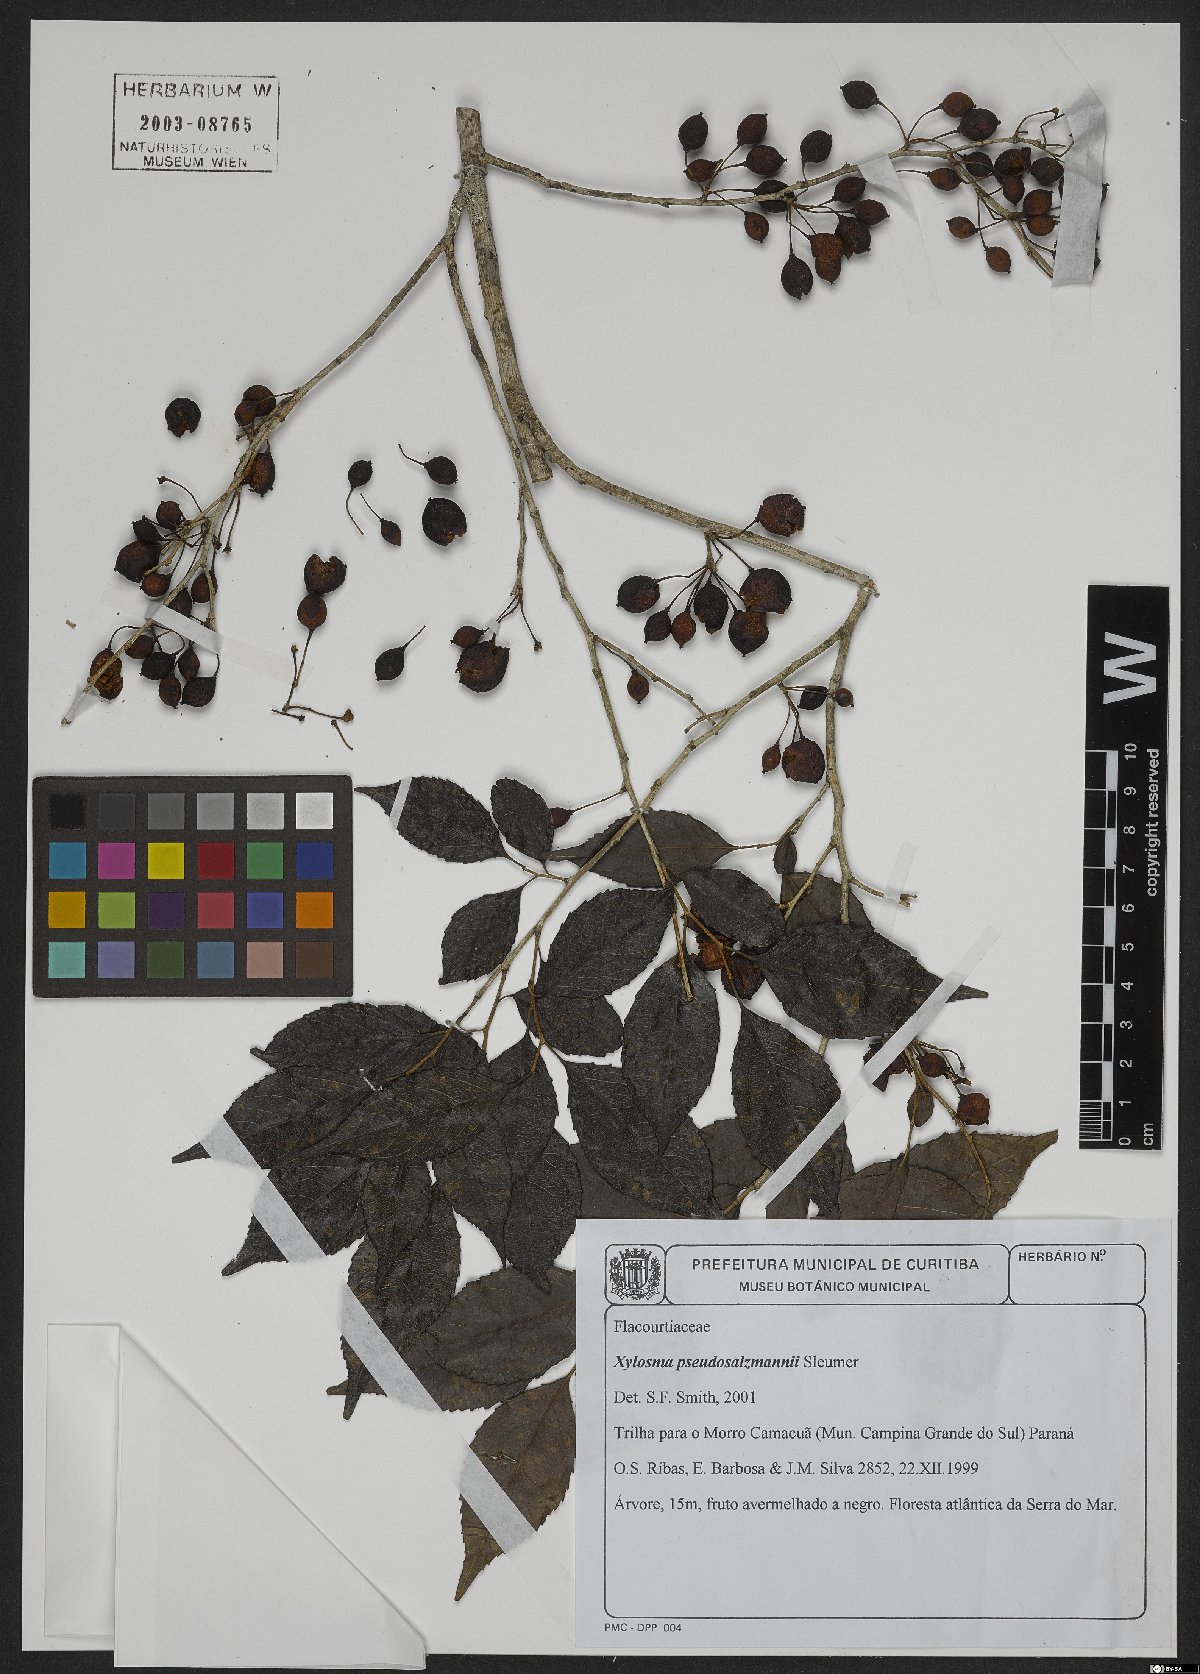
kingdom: Plantae
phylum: Tracheophyta
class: Magnoliopsida
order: Malpighiales
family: Salicaceae
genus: Xylosma
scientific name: Xylosma pseudosalzmannii
